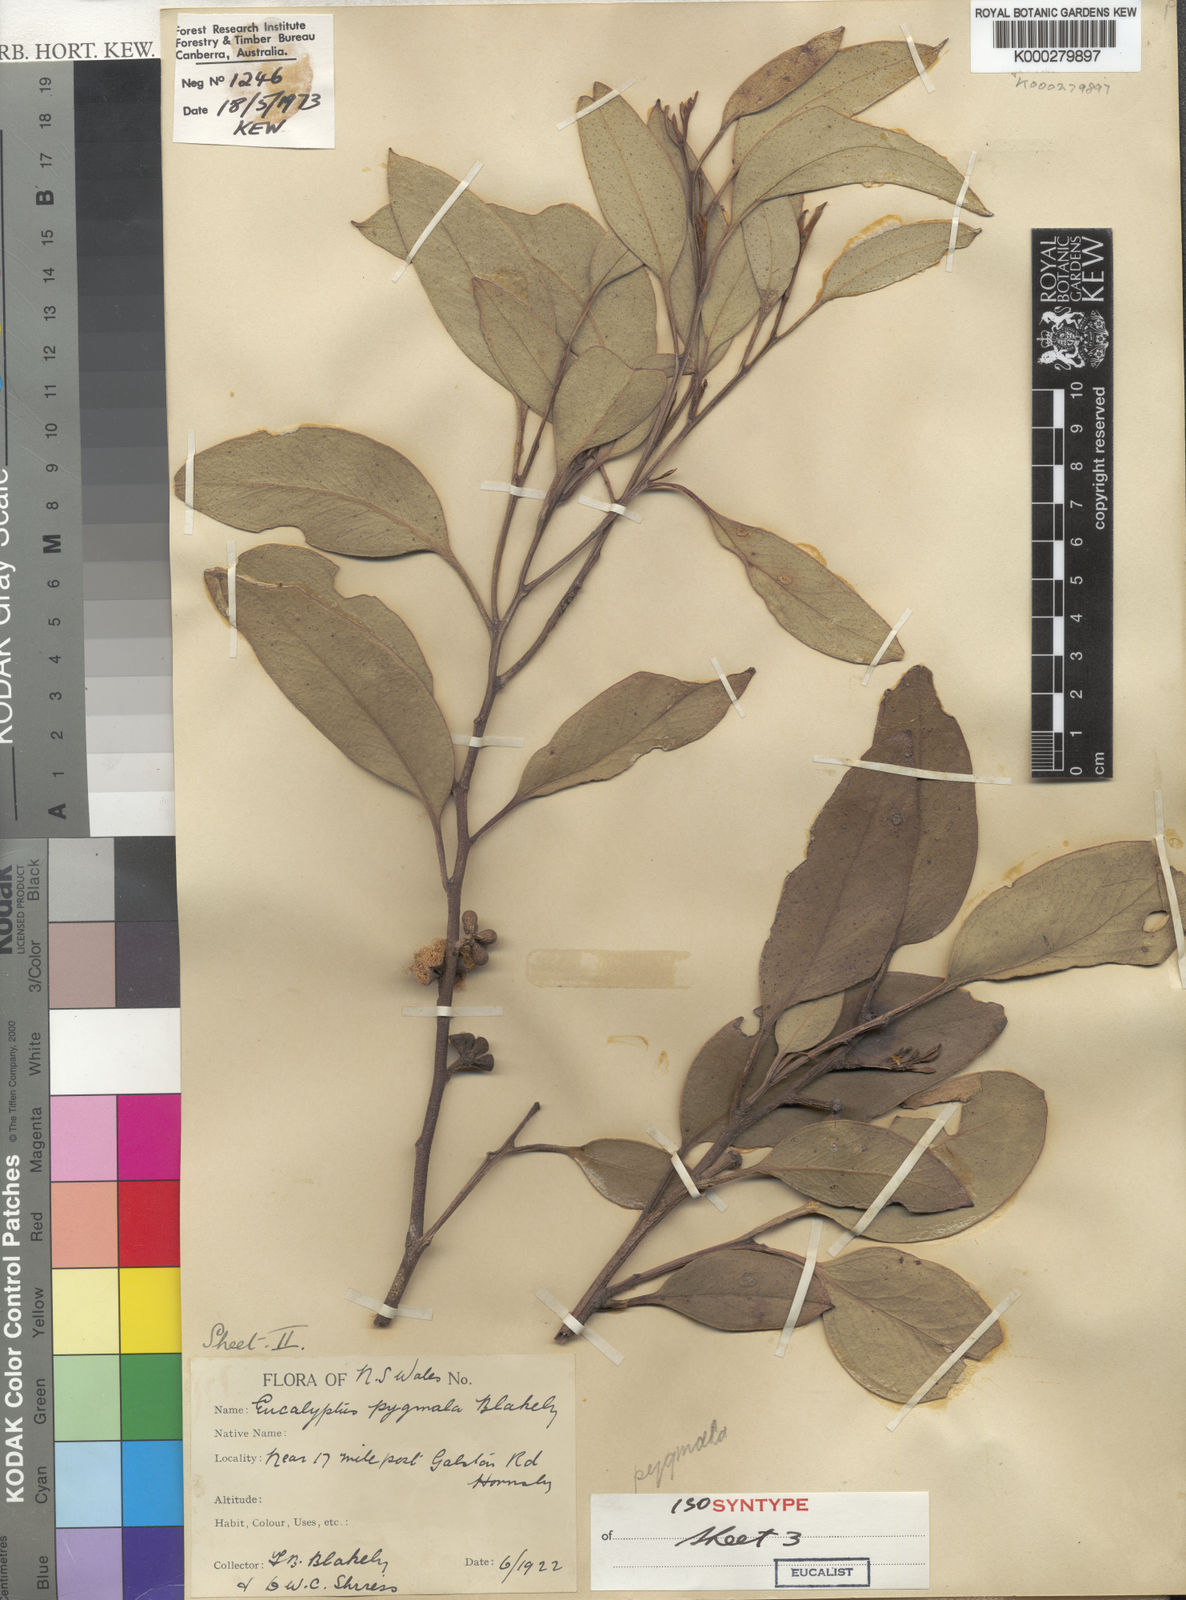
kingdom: Plantae
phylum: Tracheophyta
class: Magnoliopsida
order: Myrtales
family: Myrtaceae
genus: Eucalyptus
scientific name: Eucalyptus pygmaea
